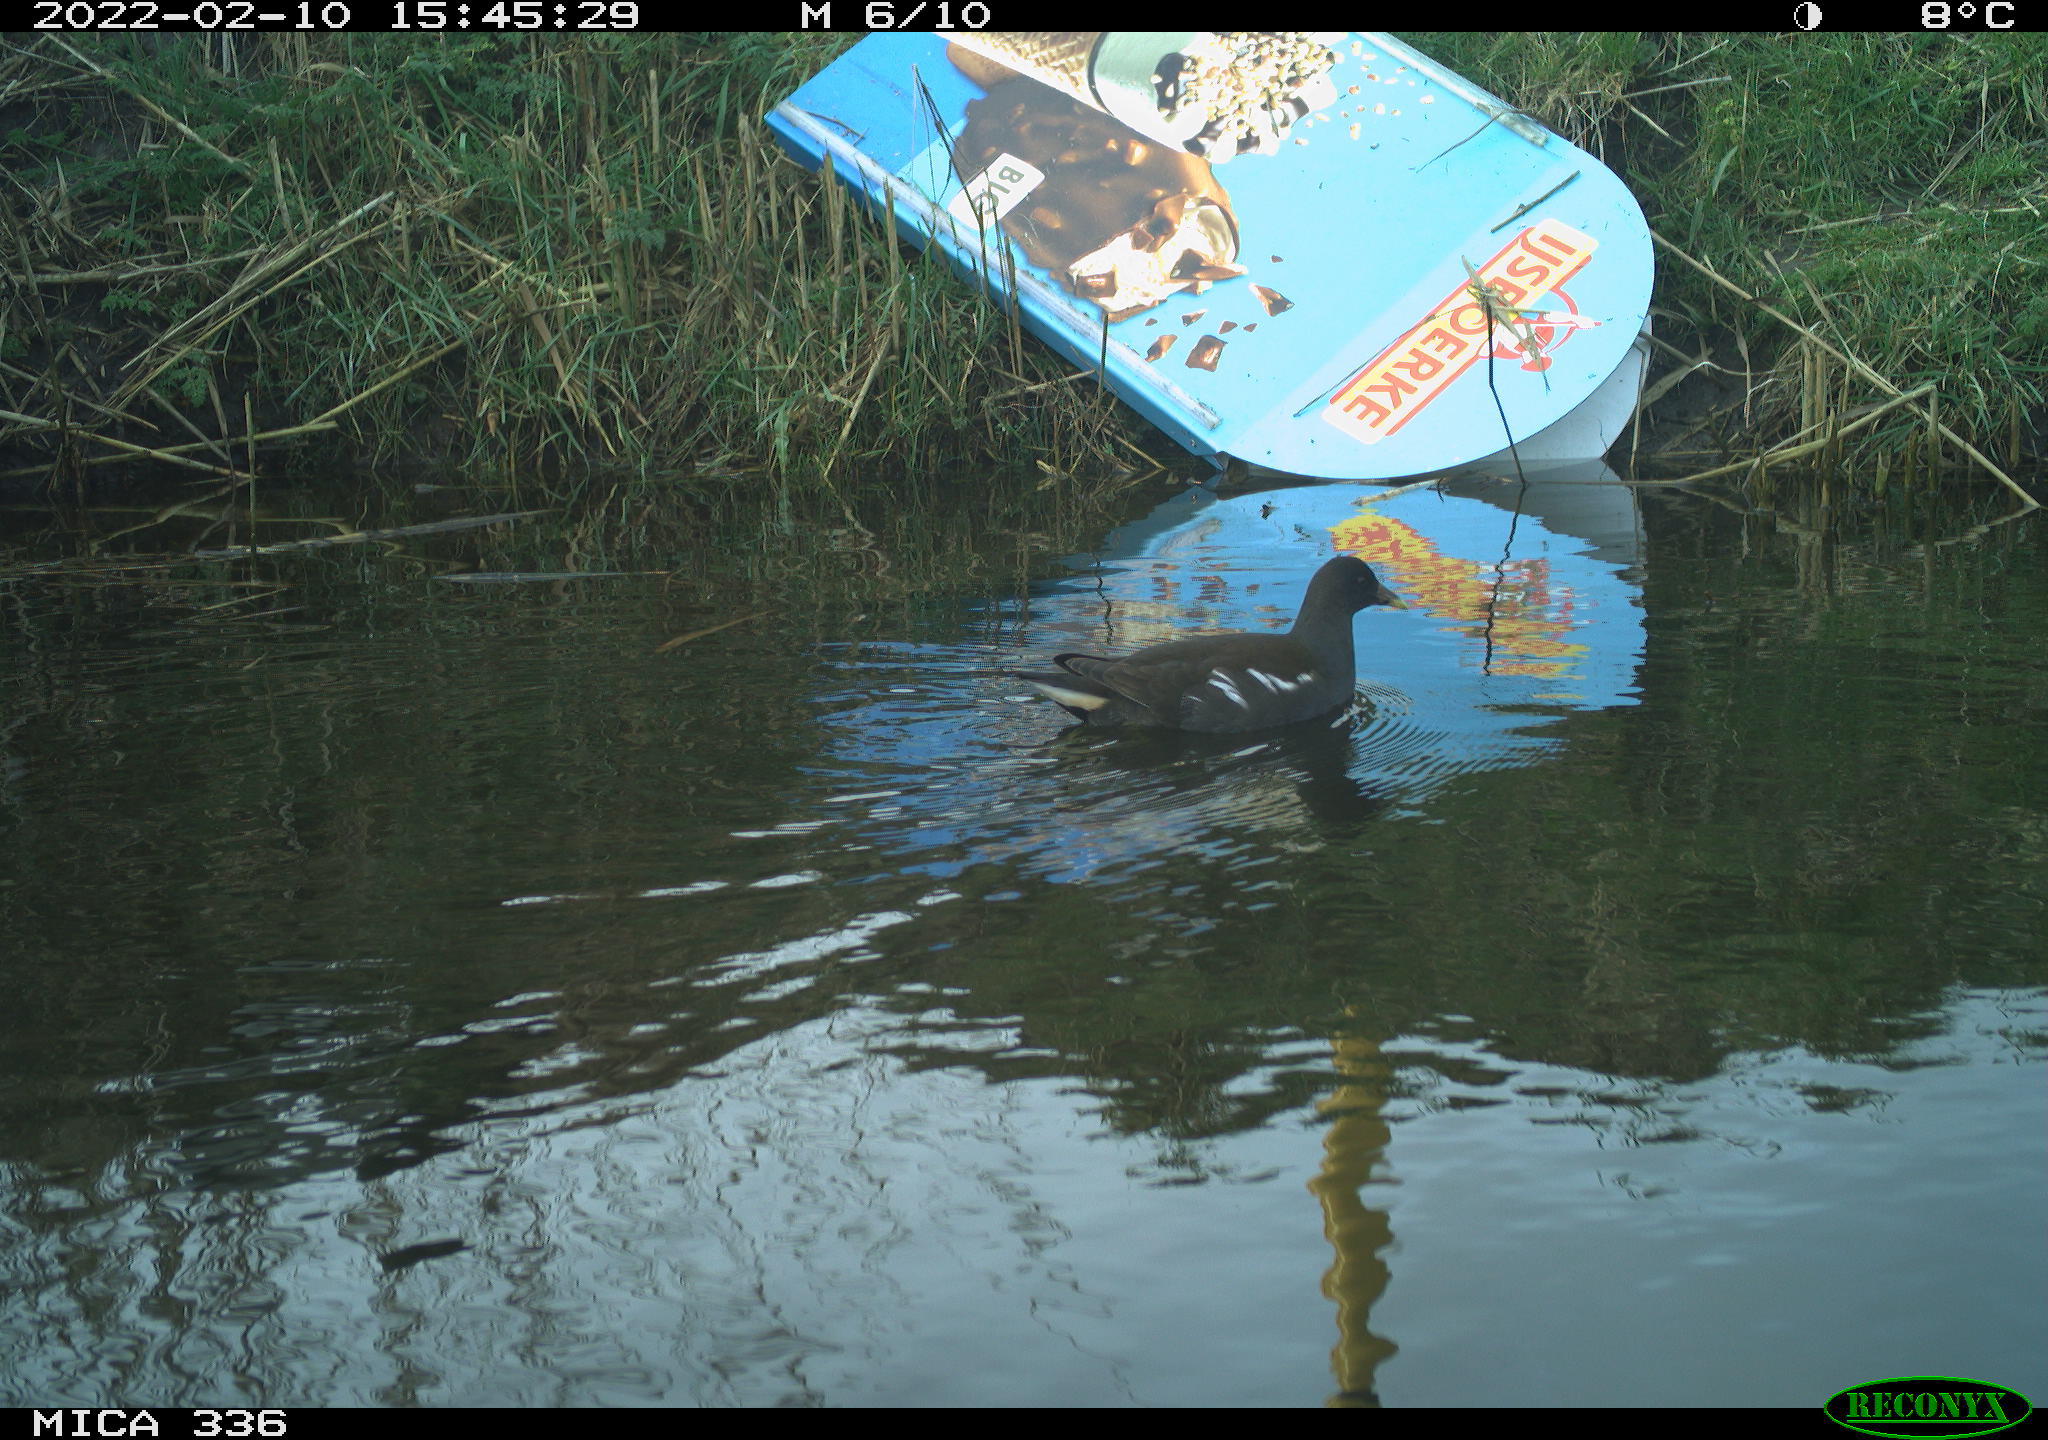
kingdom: Animalia
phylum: Chordata
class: Aves
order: Gruiformes
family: Rallidae
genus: Gallinula
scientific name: Gallinula chloropus
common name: Common moorhen
